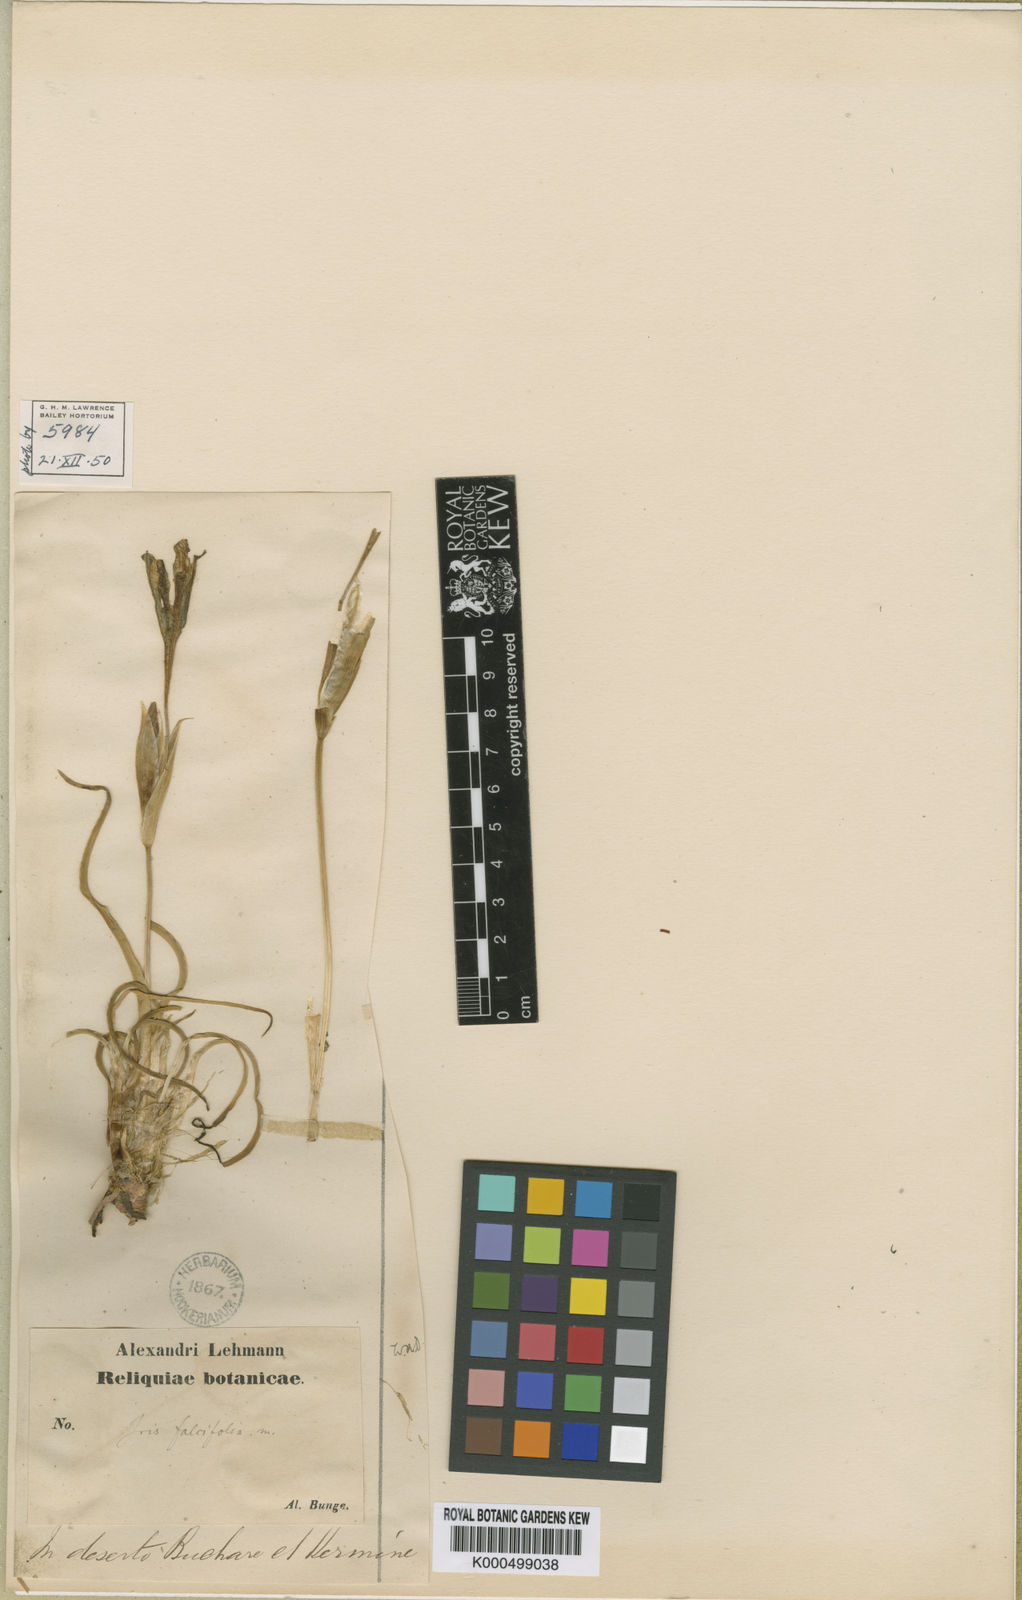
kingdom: Plantae
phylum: Tracheophyta
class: Liliopsida
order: Asparagales
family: Iridaceae
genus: Iris
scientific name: Iris longiscapa
